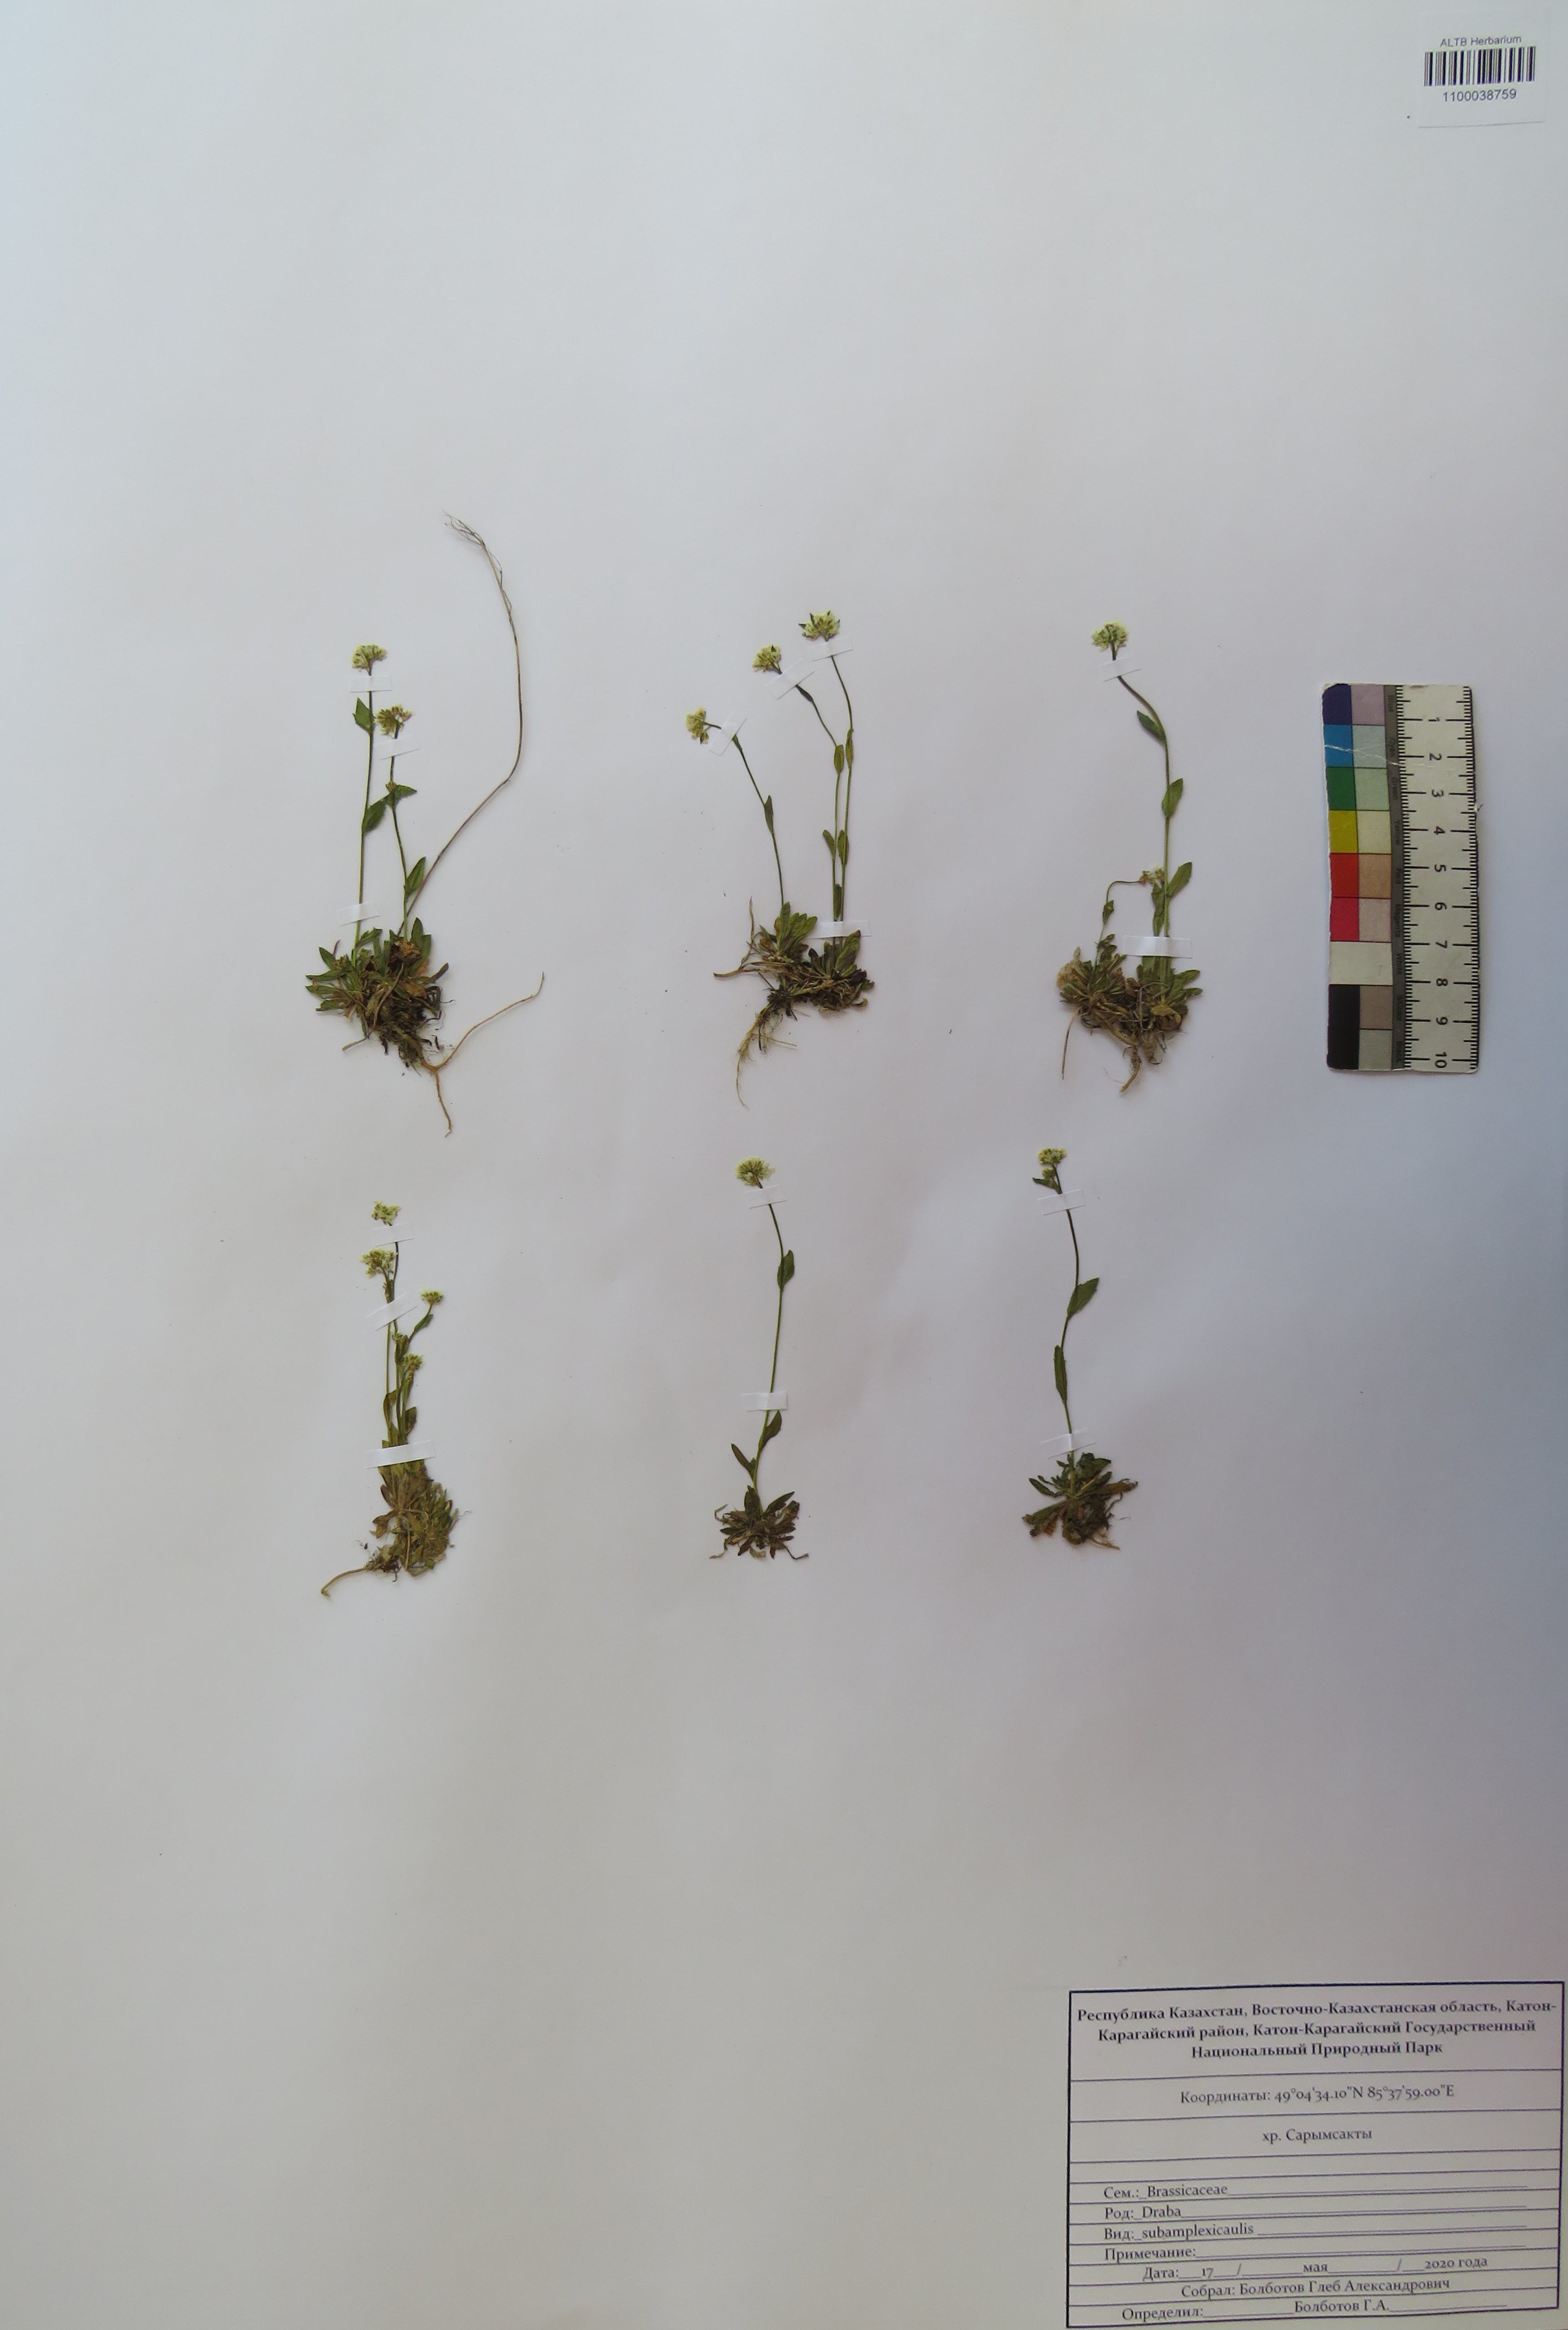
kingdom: Plantae
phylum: Tracheophyta
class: Magnoliopsida
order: Brassicales
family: Brassicaceae
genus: Draba
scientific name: Draba subamplexicaulis
